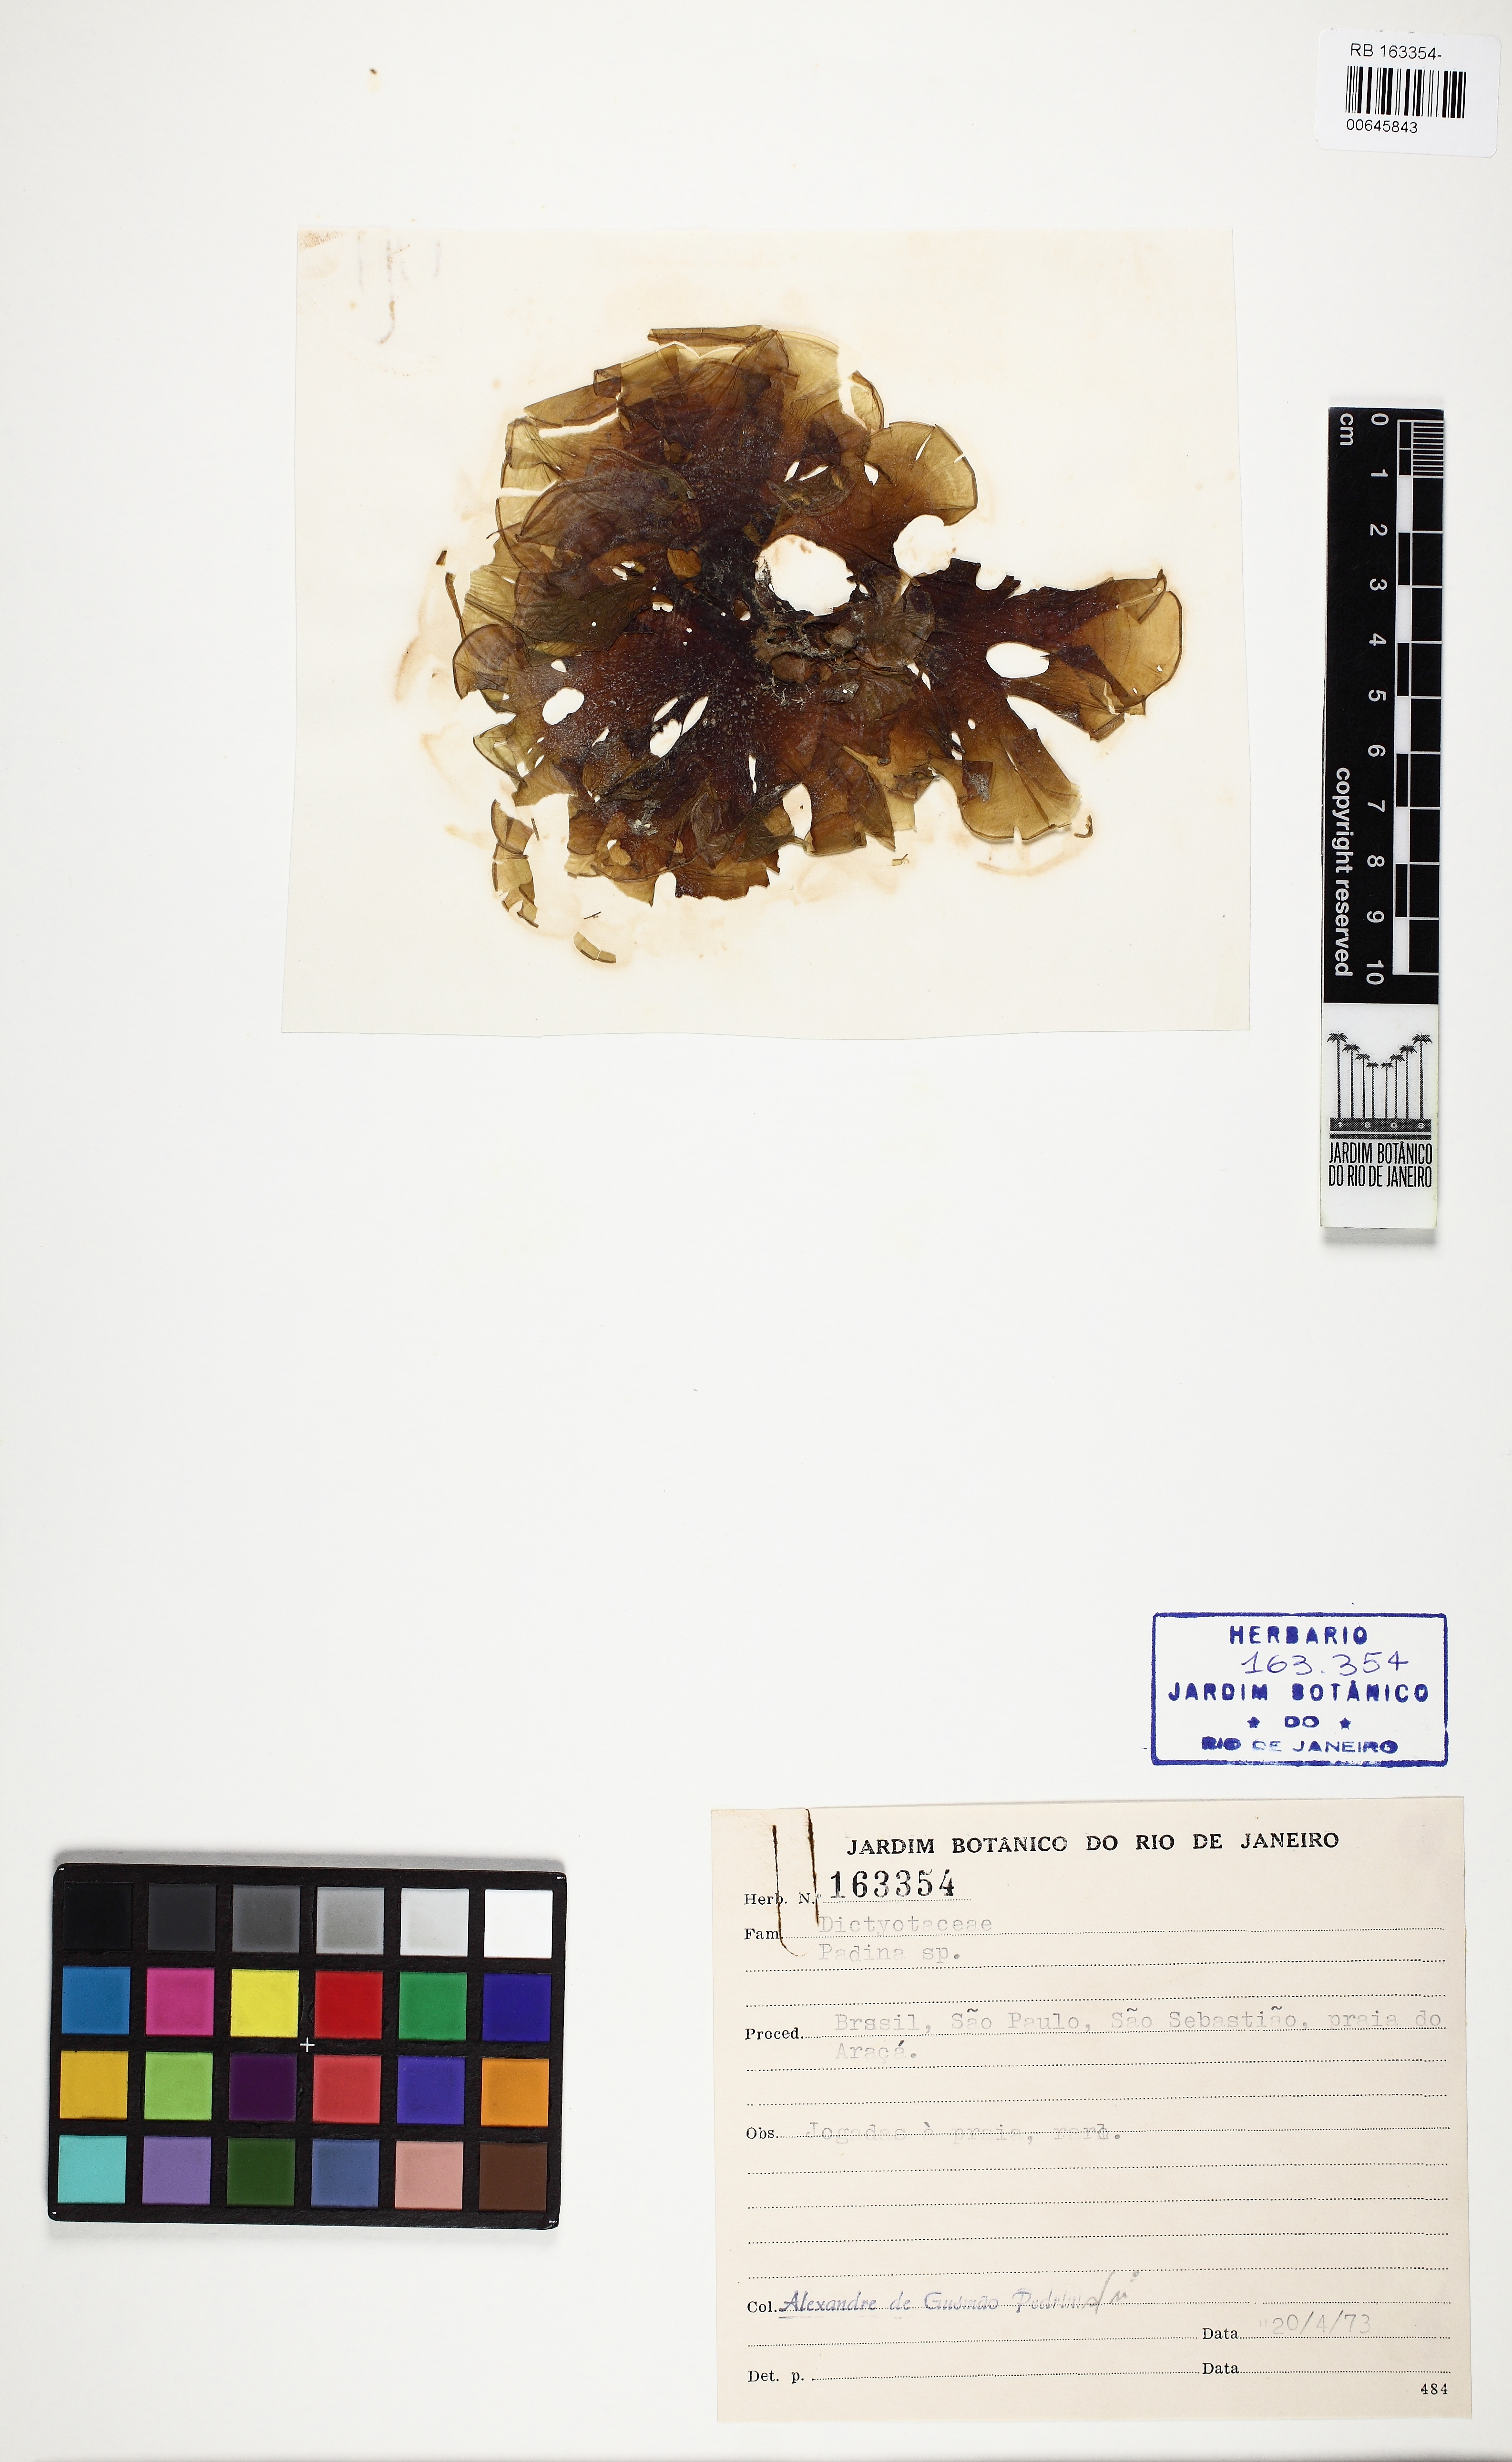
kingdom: Chromista
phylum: Ochrophyta
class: Phaeophyceae
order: Dictyotales
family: Dictyotaceae
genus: Padina
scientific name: Padina
